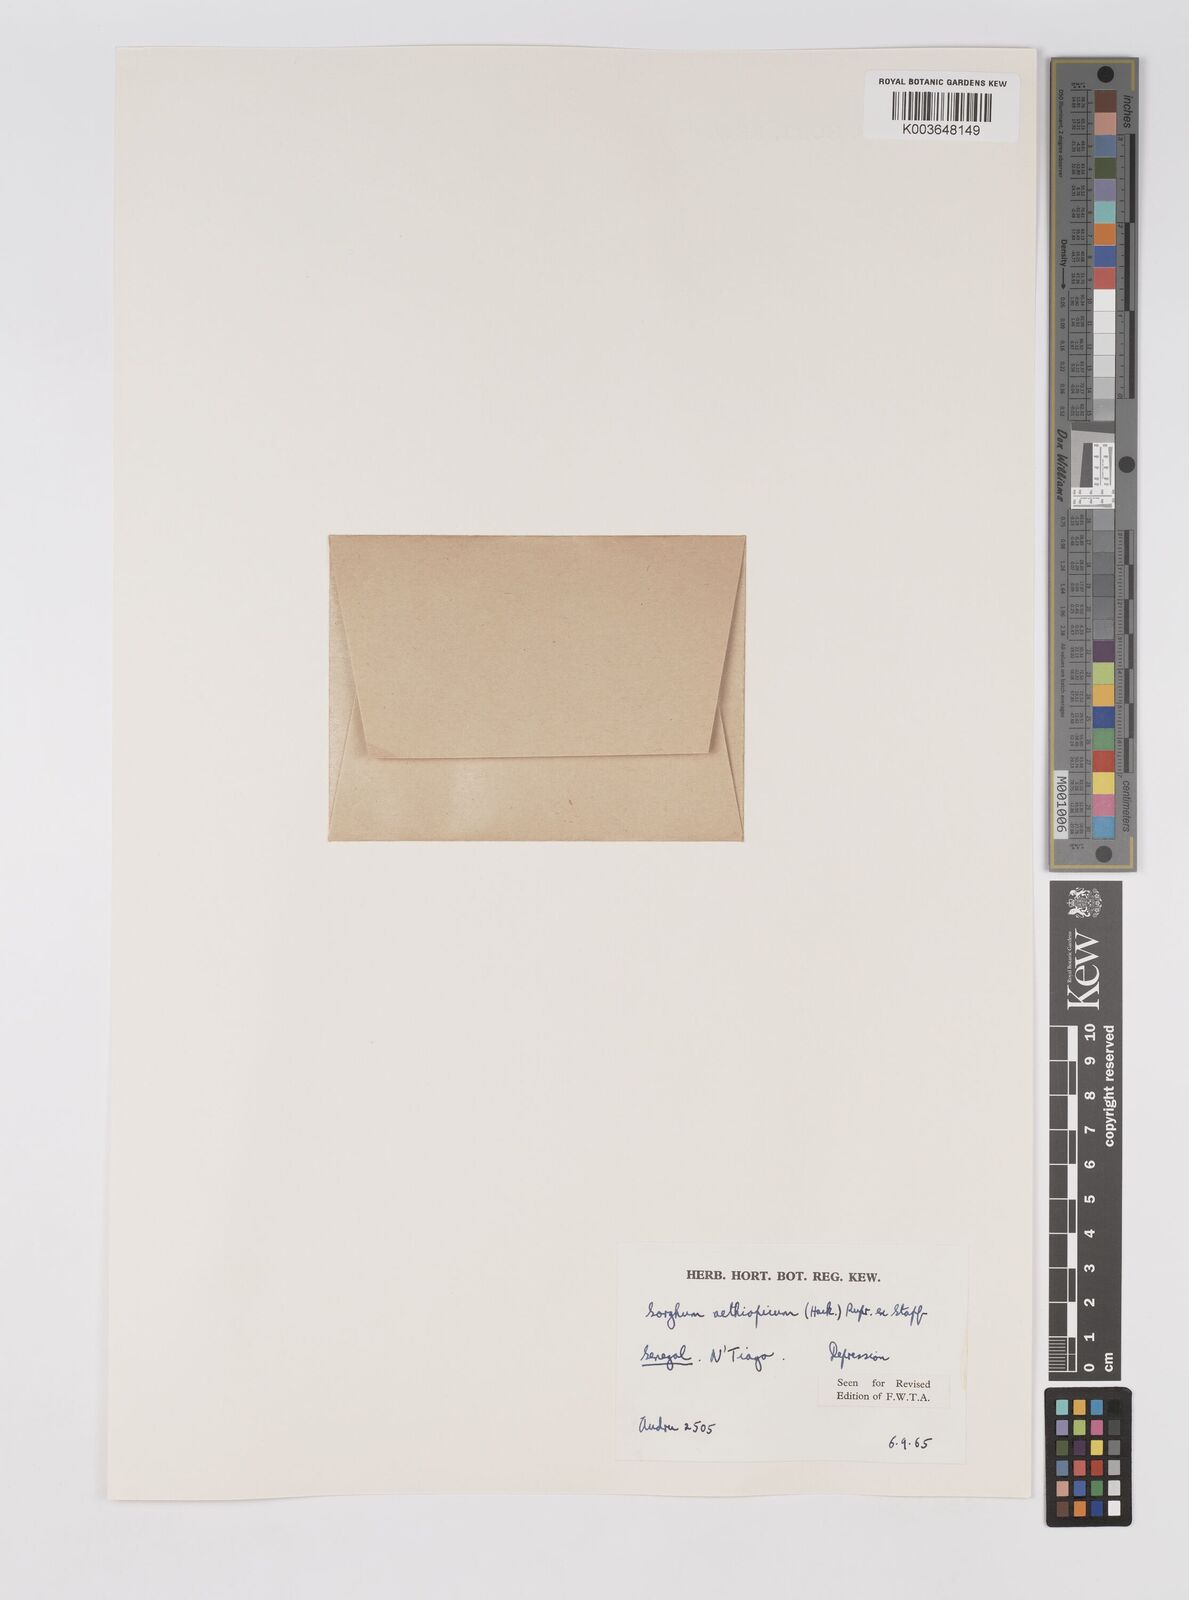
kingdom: Plantae
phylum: Tracheophyta
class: Liliopsida
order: Poales
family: Poaceae
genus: Sorghum
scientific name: Sorghum arundinaceum
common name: Sorghum
